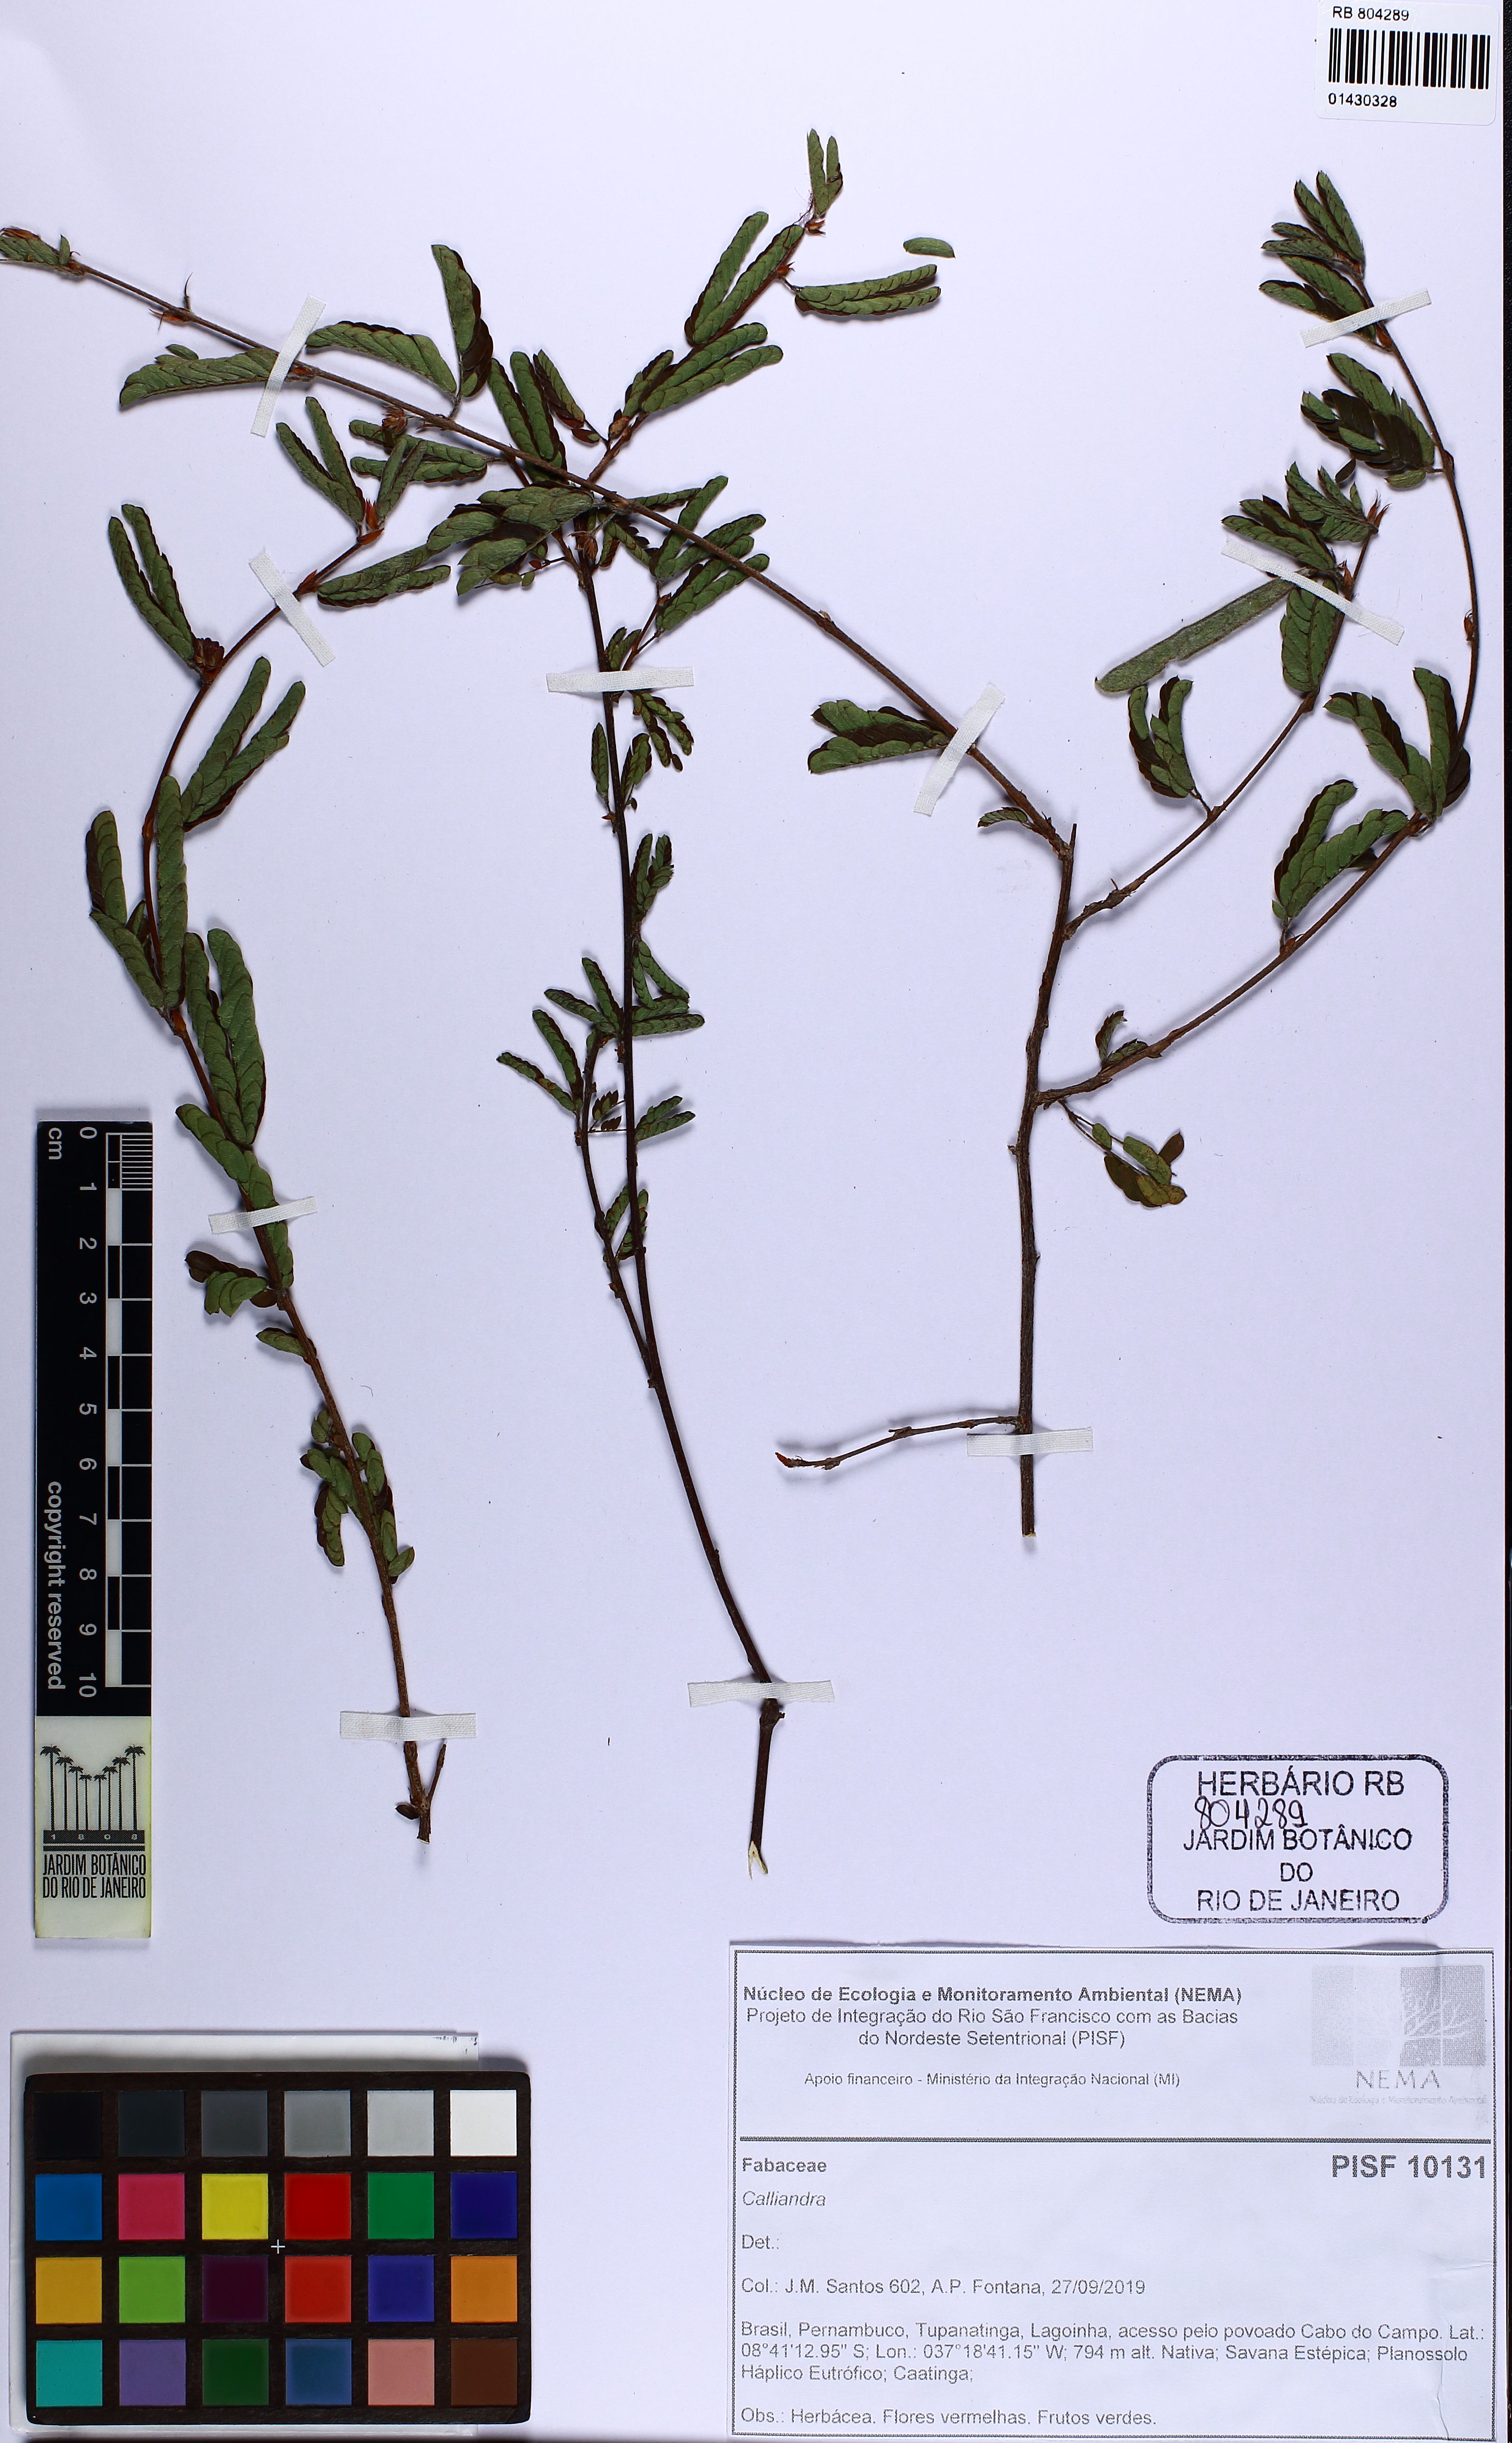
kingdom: Plantae
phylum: Tracheophyta
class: Magnoliopsida
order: Fabales
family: Fabaceae
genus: Calliandra
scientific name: Calliandra
